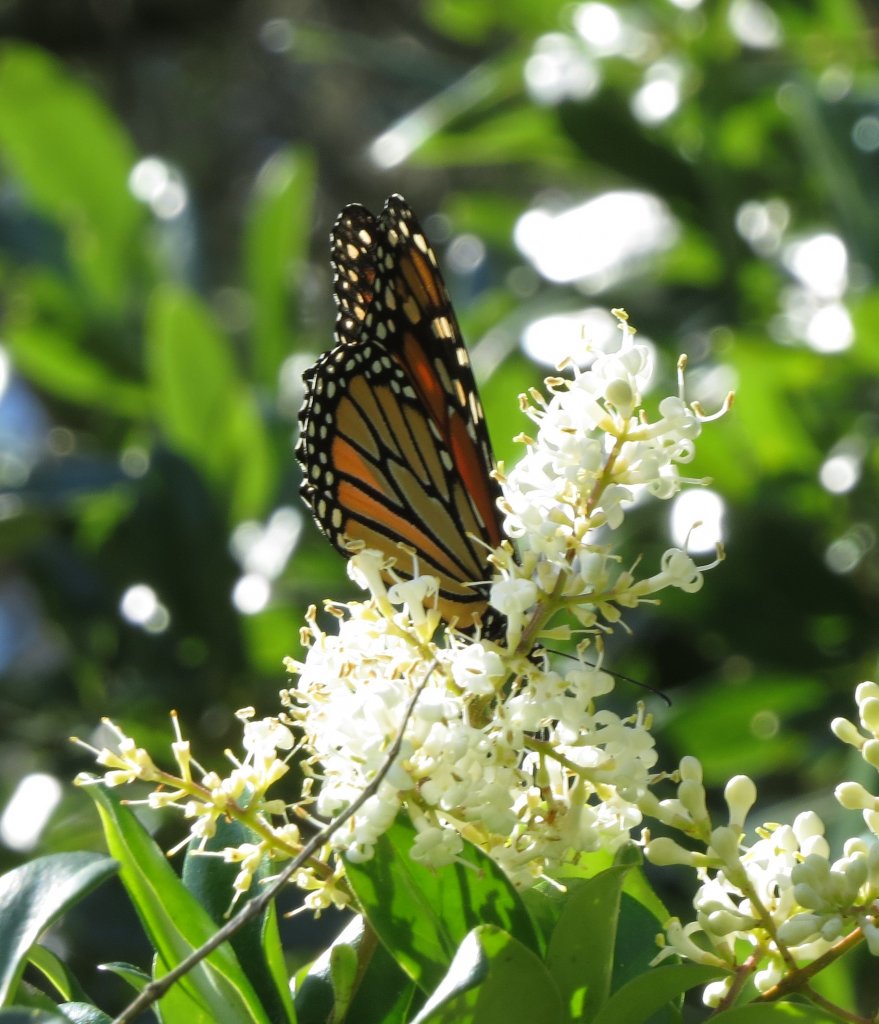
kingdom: Animalia
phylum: Arthropoda
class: Insecta
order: Lepidoptera
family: Nymphalidae
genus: Danaus
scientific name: Danaus plexippus
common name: Monarch
